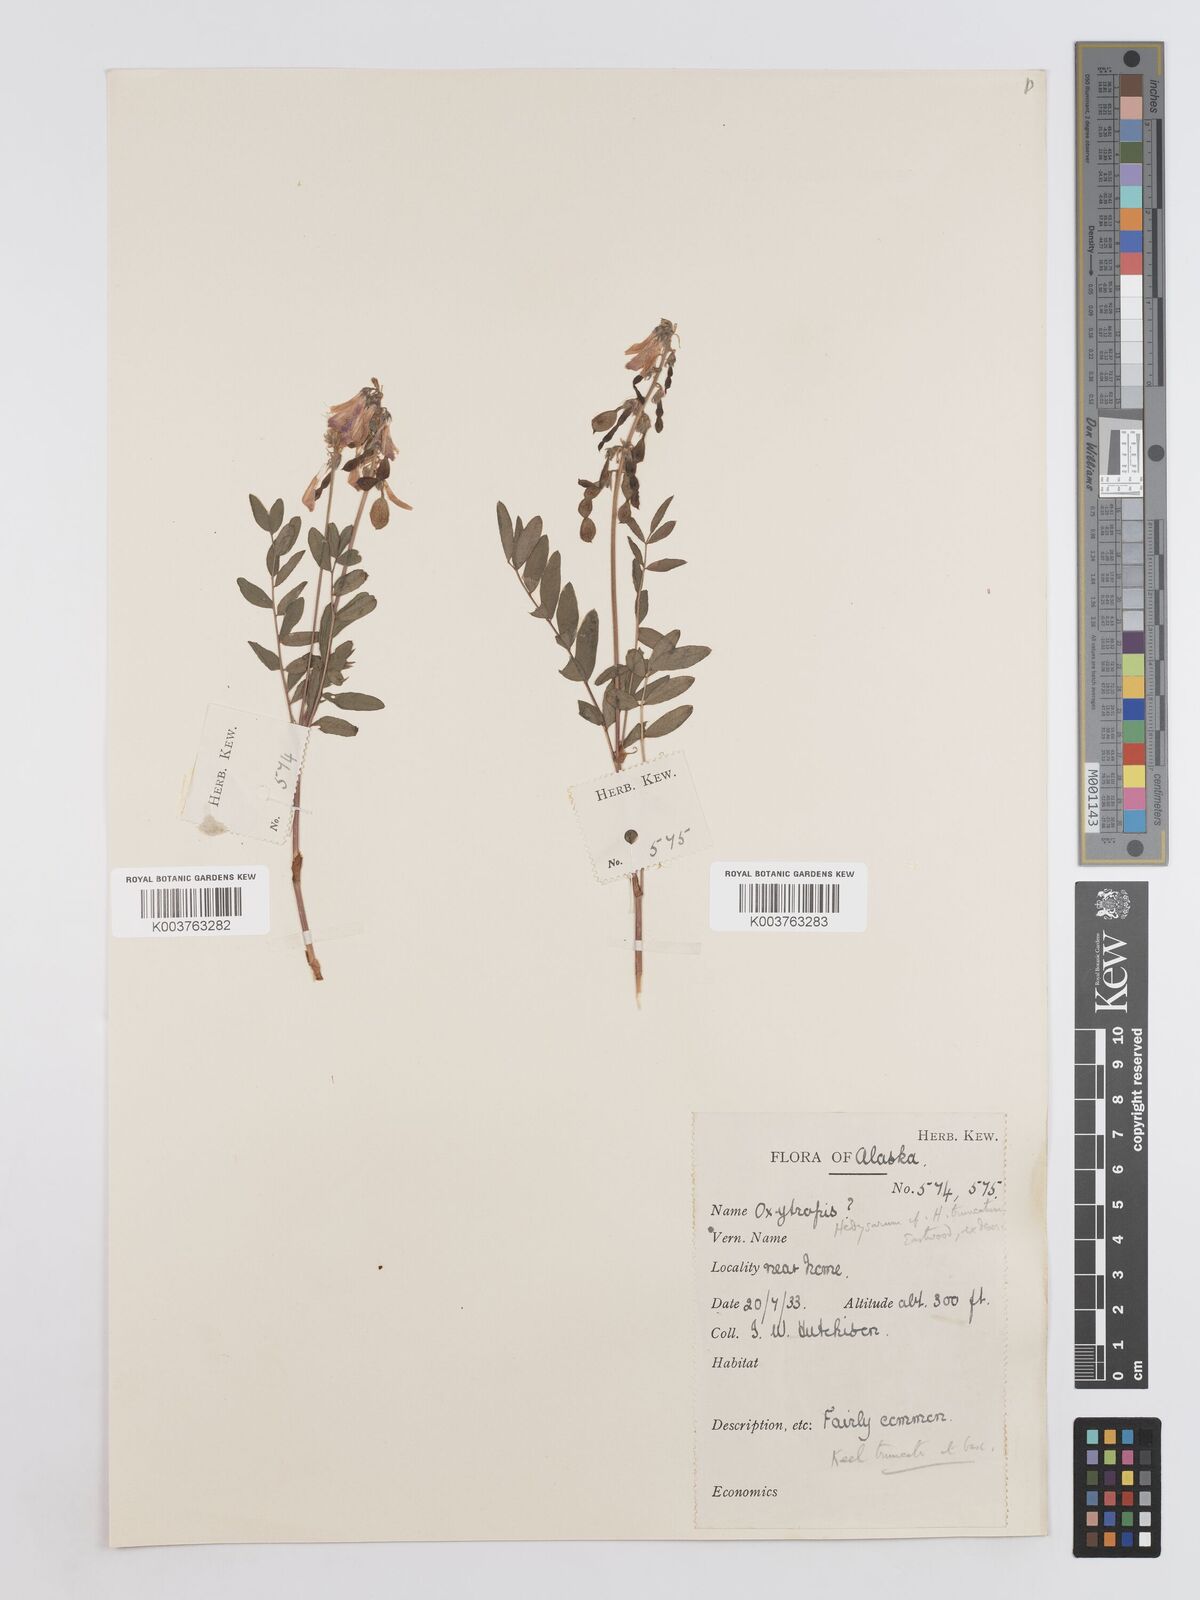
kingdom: Plantae
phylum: Tracheophyta
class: Magnoliopsida
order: Fabales
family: Fabaceae
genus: Hedysarum
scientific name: Hedysarum alpinum
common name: Alpine sweet-vetch
